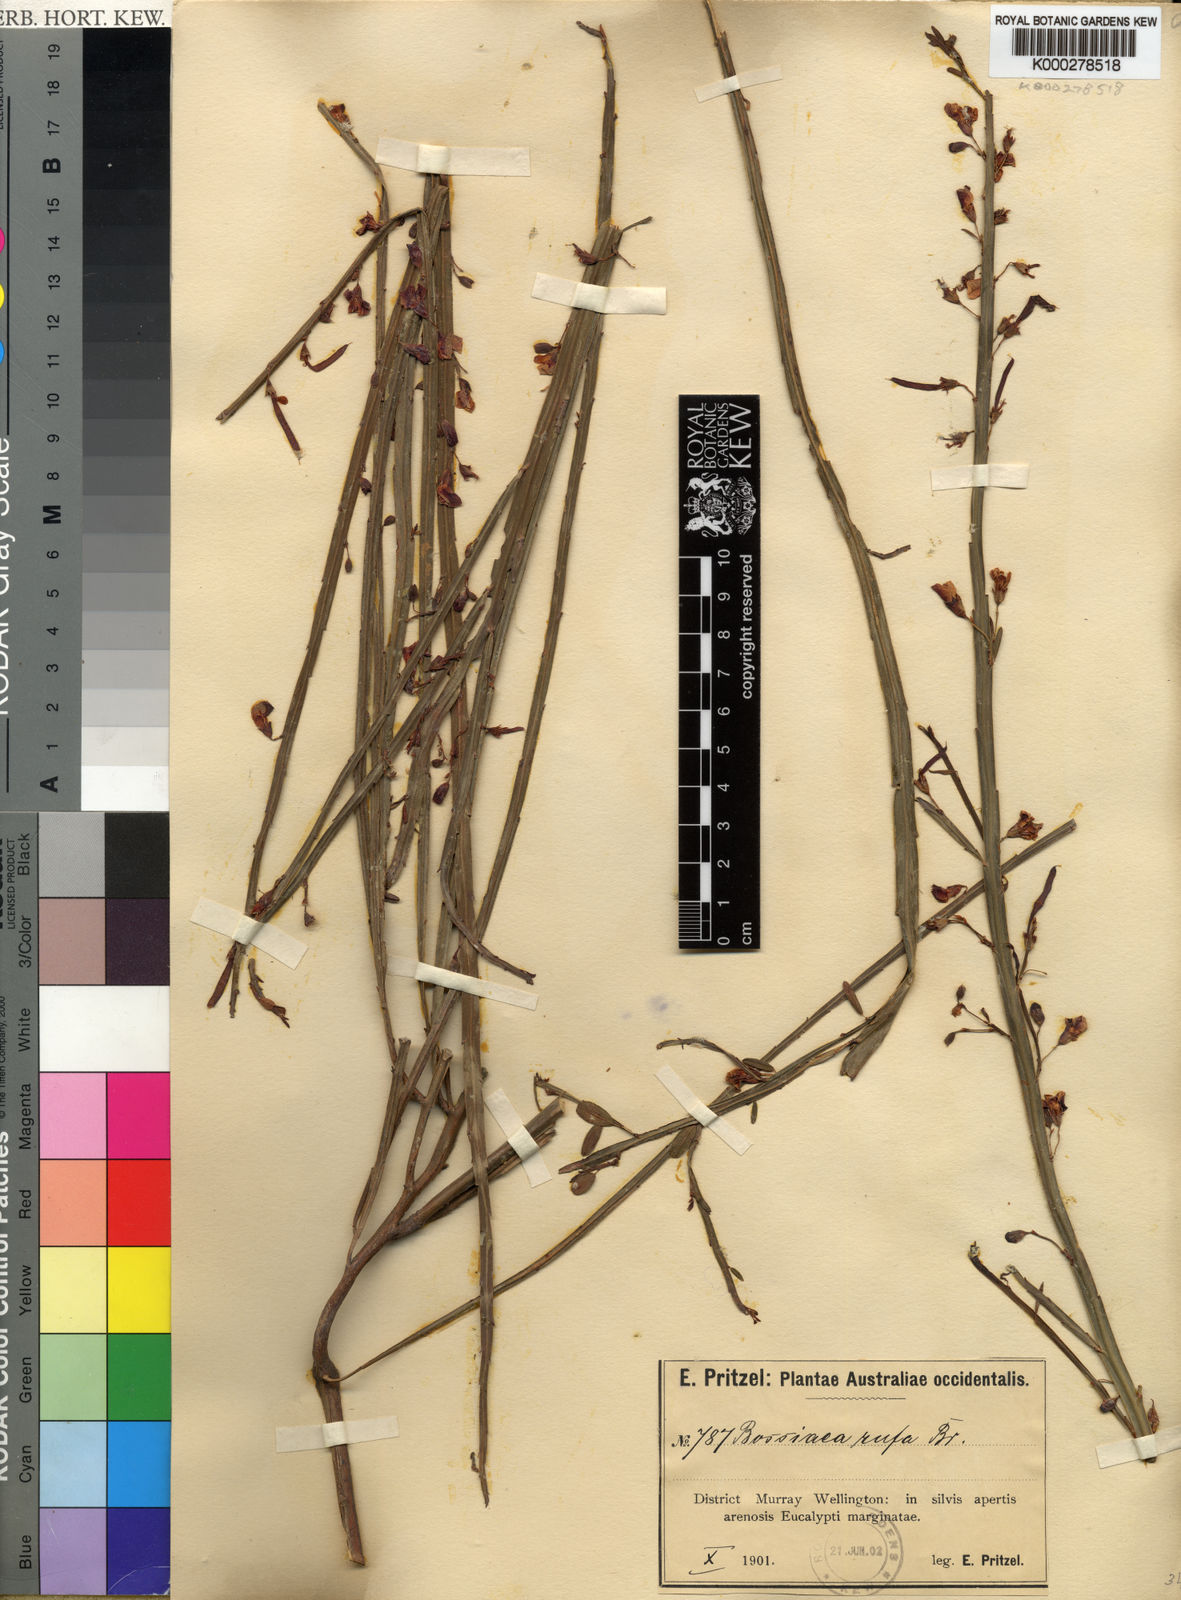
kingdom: Plantae
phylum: Tracheophyta
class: Magnoliopsida
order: Fabales
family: Fabaceae
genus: Bossiaea
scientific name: Bossiaea rufa
